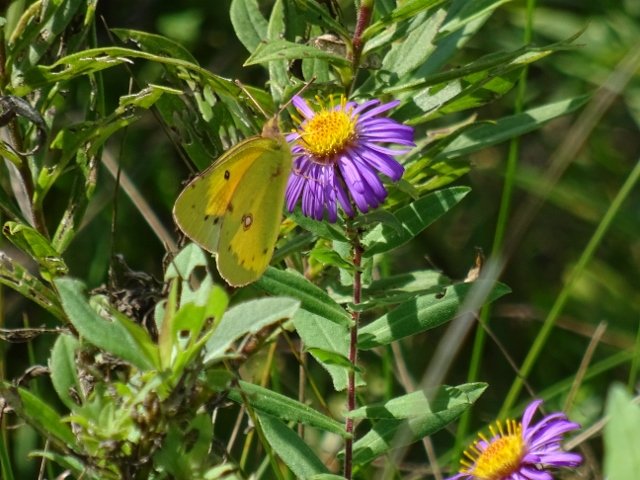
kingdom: Animalia
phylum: Arthropoda
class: Insecta
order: Lepidoptera
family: Pieridae
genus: Colias
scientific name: Colias eurytheme
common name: Orange Sulphur
